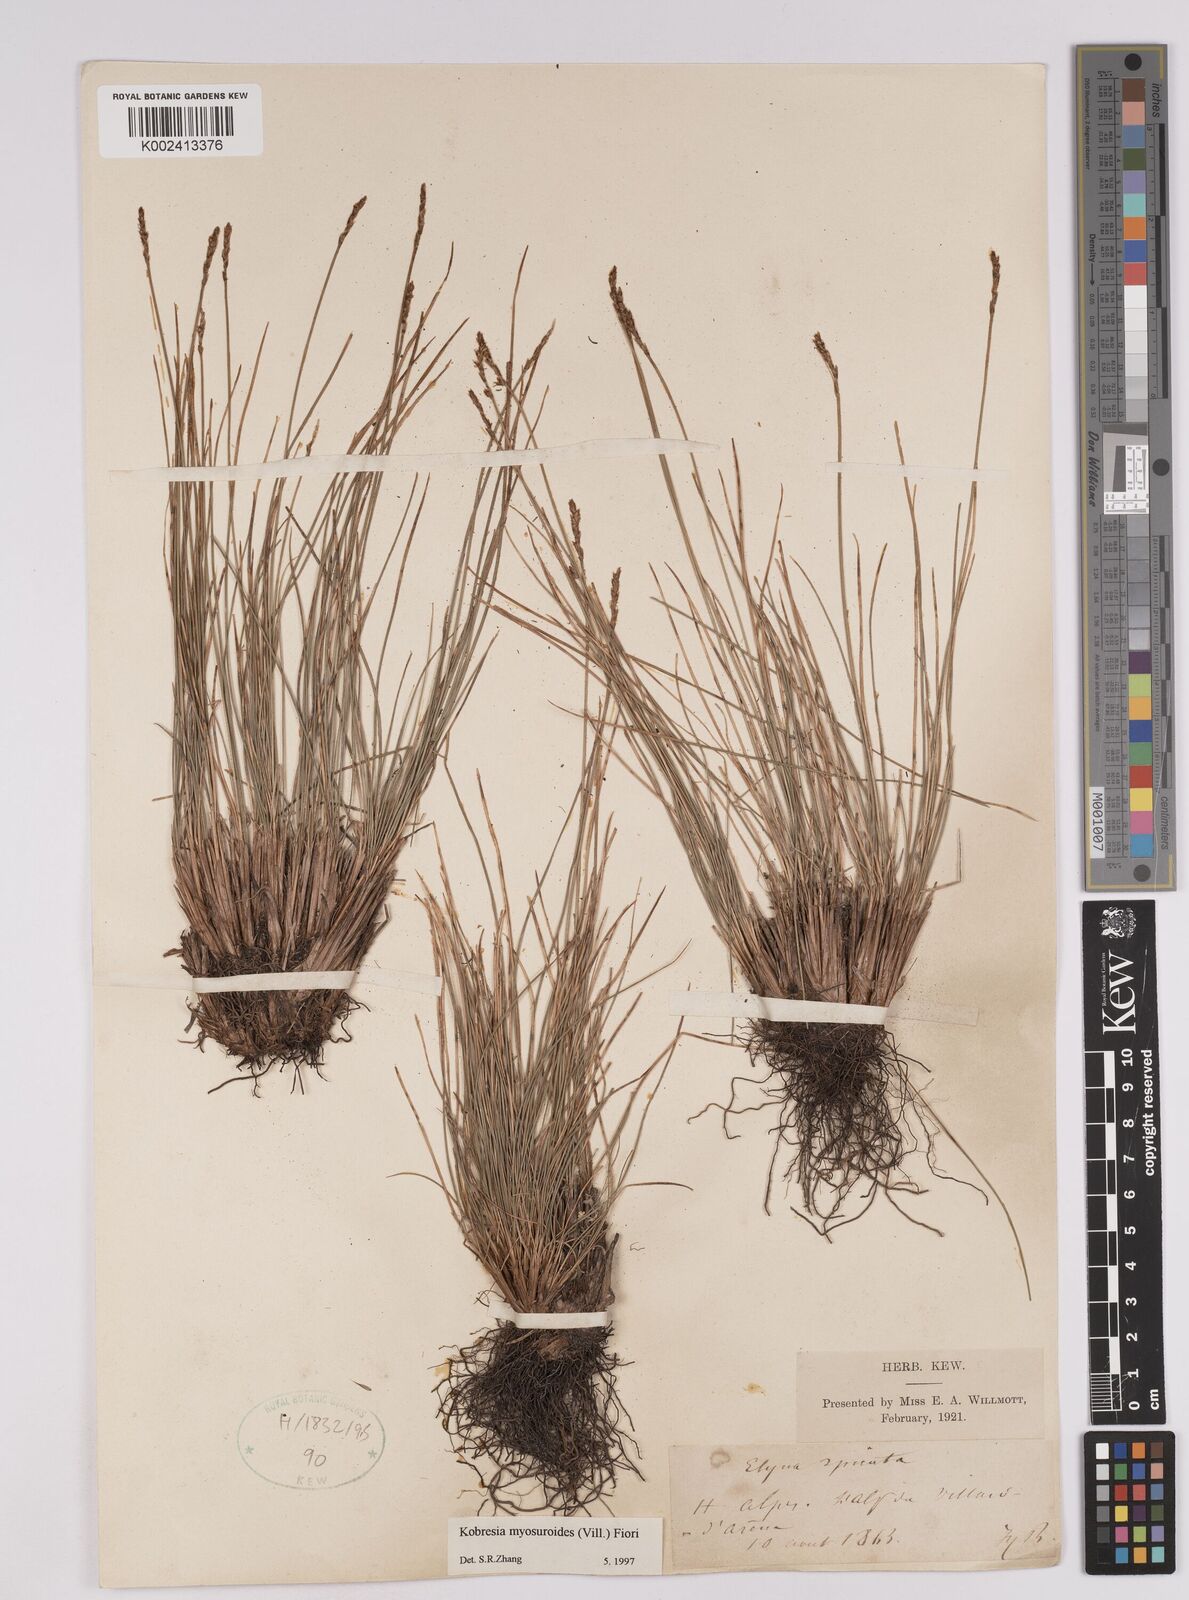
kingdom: Plantae
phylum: Tracheophyta
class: Liliopsida
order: Poales
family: Cyperaceae
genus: Carex
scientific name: Carex myosuroides
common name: Bellard's bog sedge
